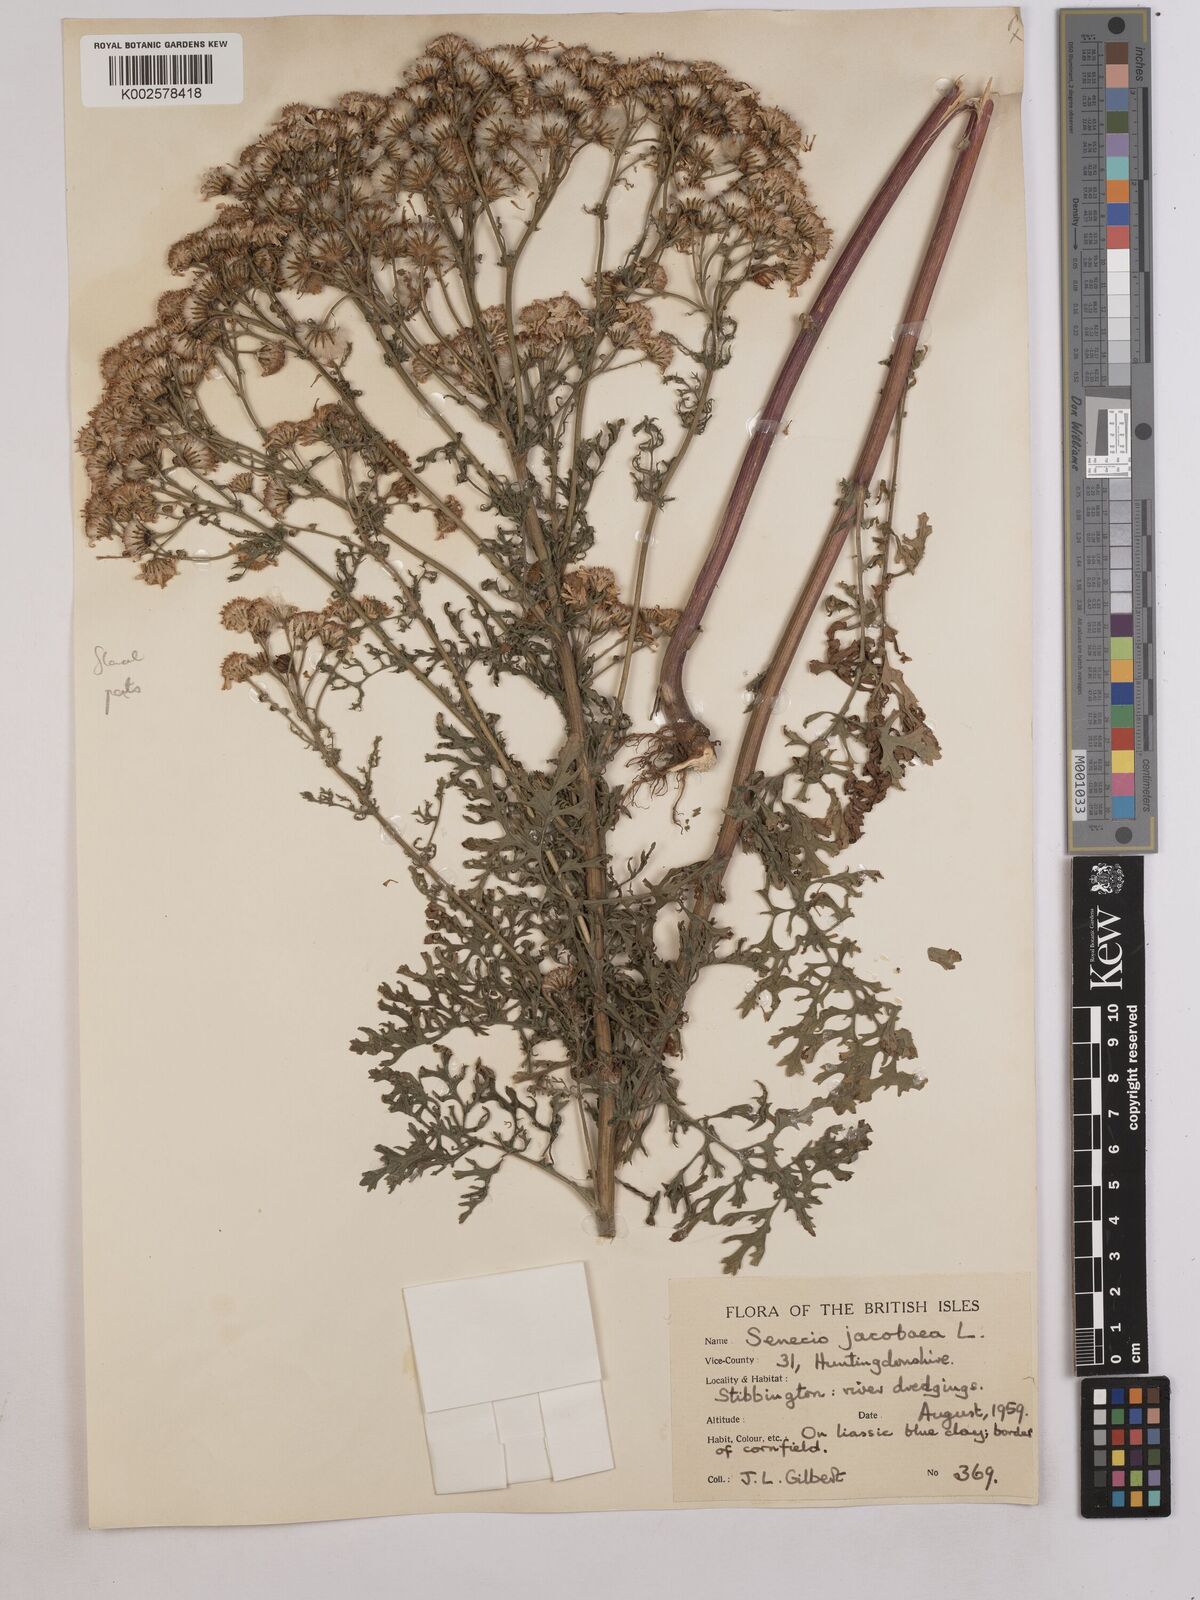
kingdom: Plantae
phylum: Tracheophyta
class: Magnoliopsida
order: Asterales
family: Asteraceae
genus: Jacobaea
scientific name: Jacobaea vulgaris
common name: Stinking willie
